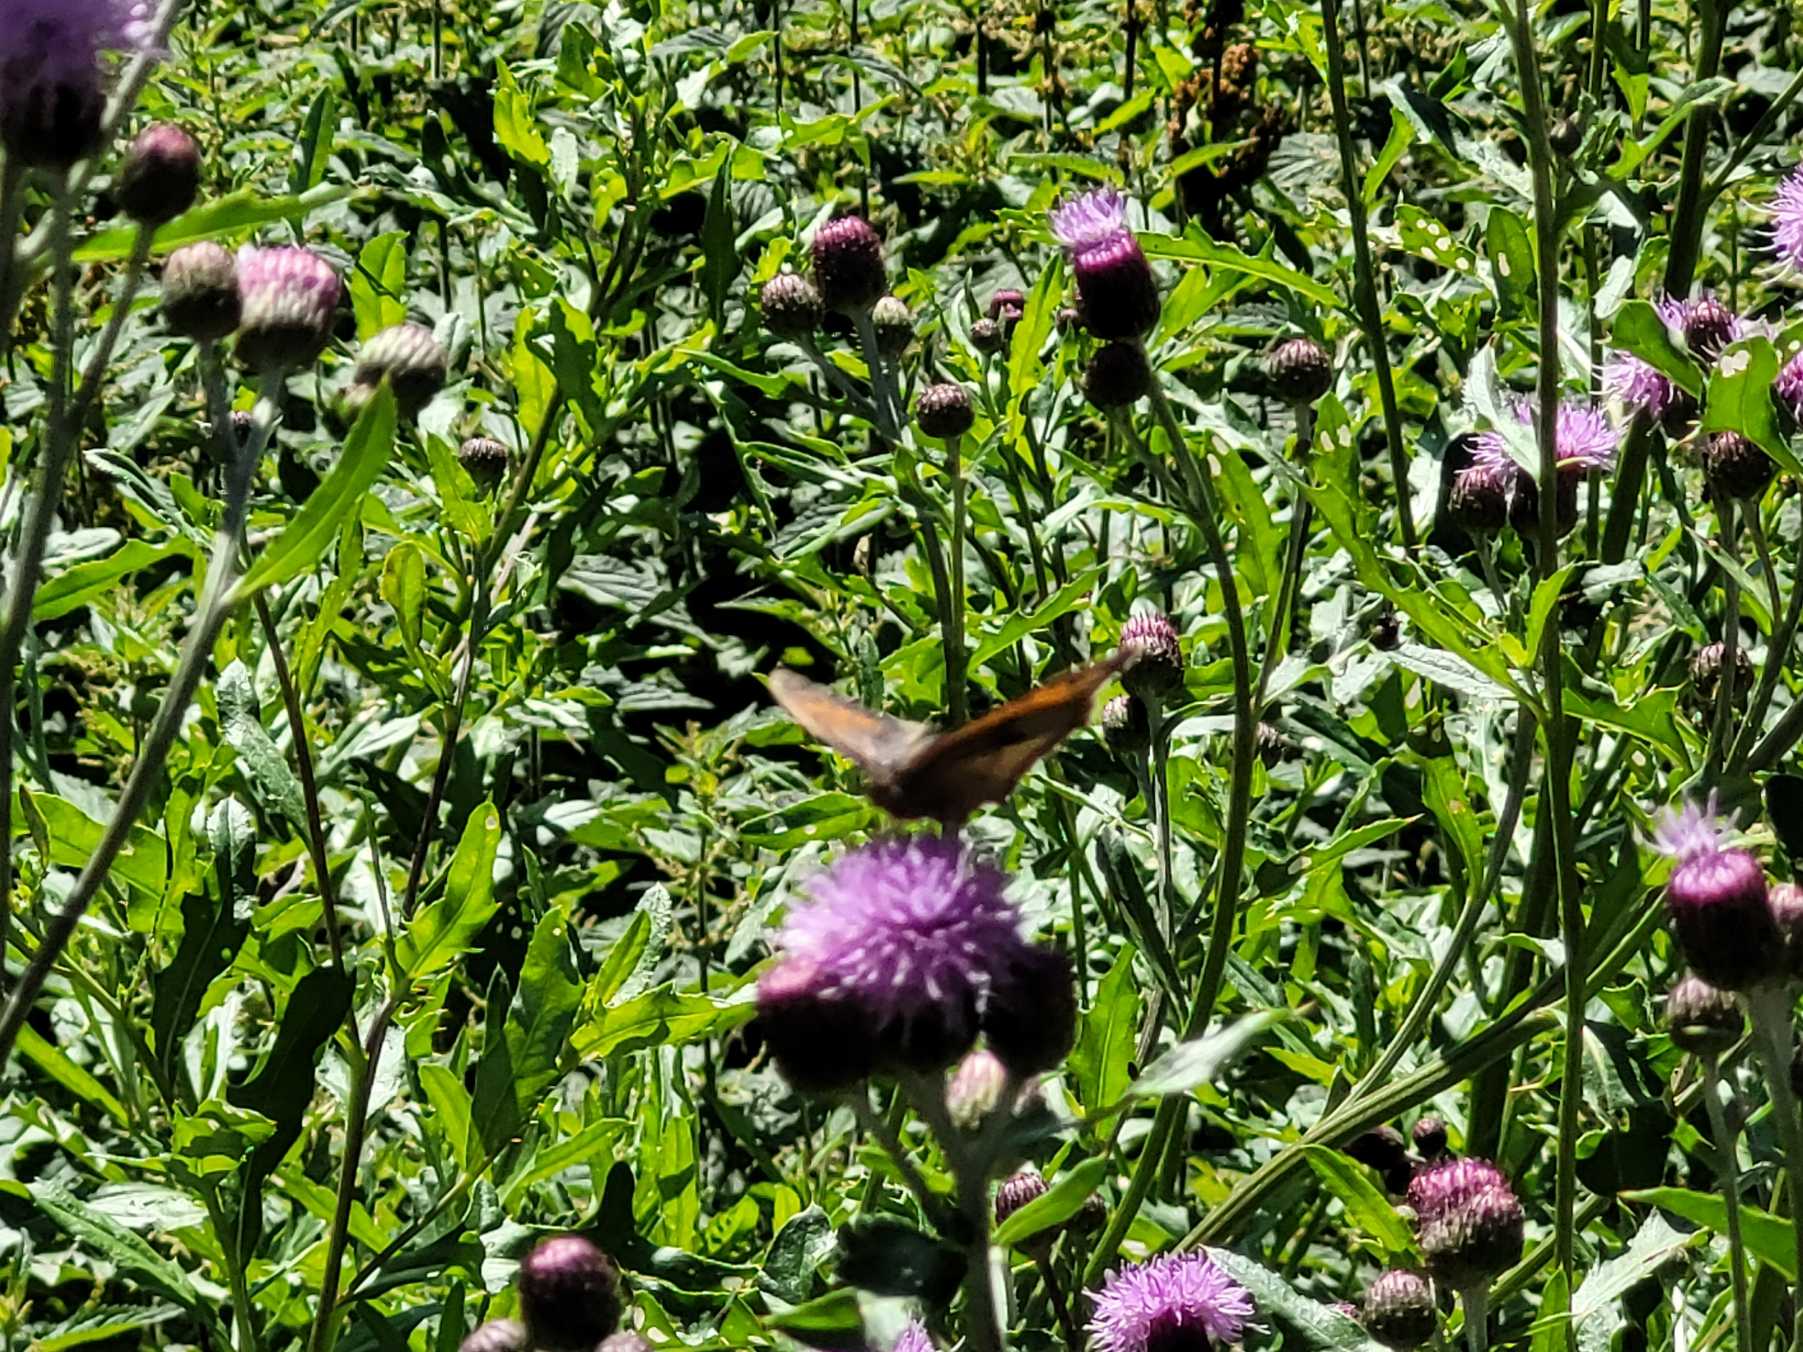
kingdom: Animalia
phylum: Arthropoda
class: Insecta
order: Lepidoptera
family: Nymphalidae
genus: Maniola
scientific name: Maniola jurtina
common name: Græsrandøje
